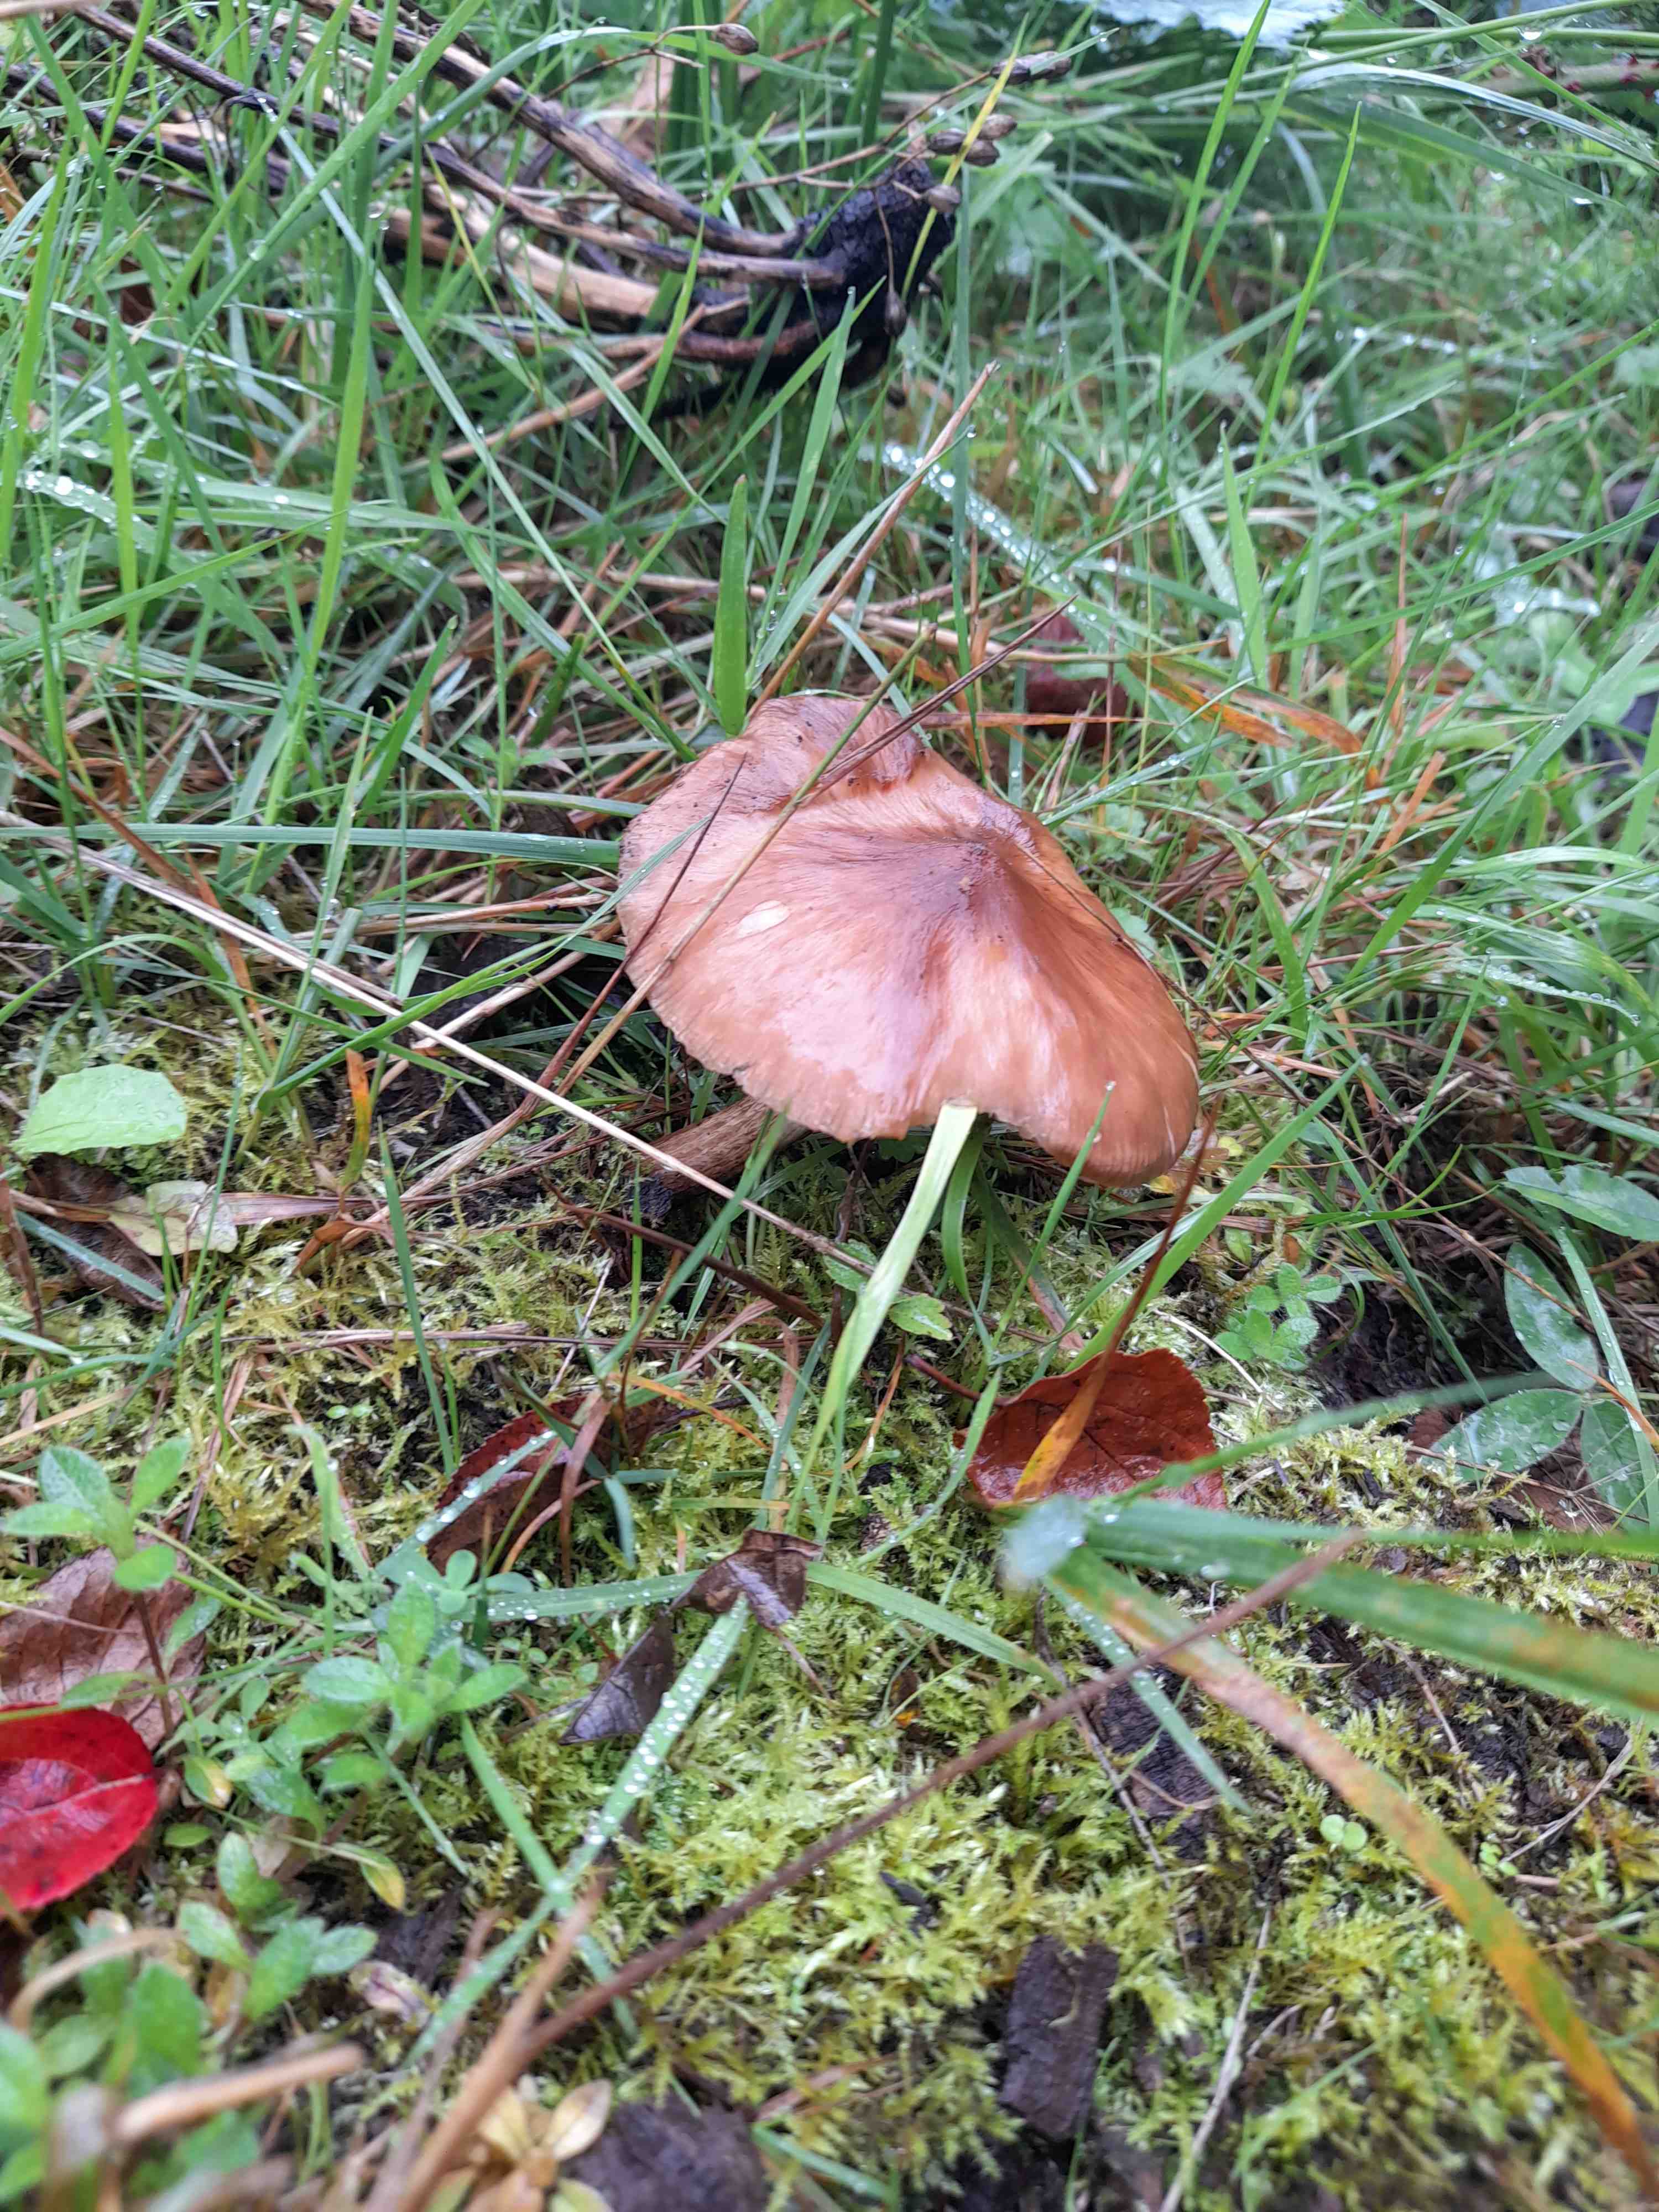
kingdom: Fungi
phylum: Basidiomycota
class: Agaricomycetes
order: Agaricales
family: Pluteaceae
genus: Pluteus
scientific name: Pluteus cervinus
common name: sodfarvet skærmhat
